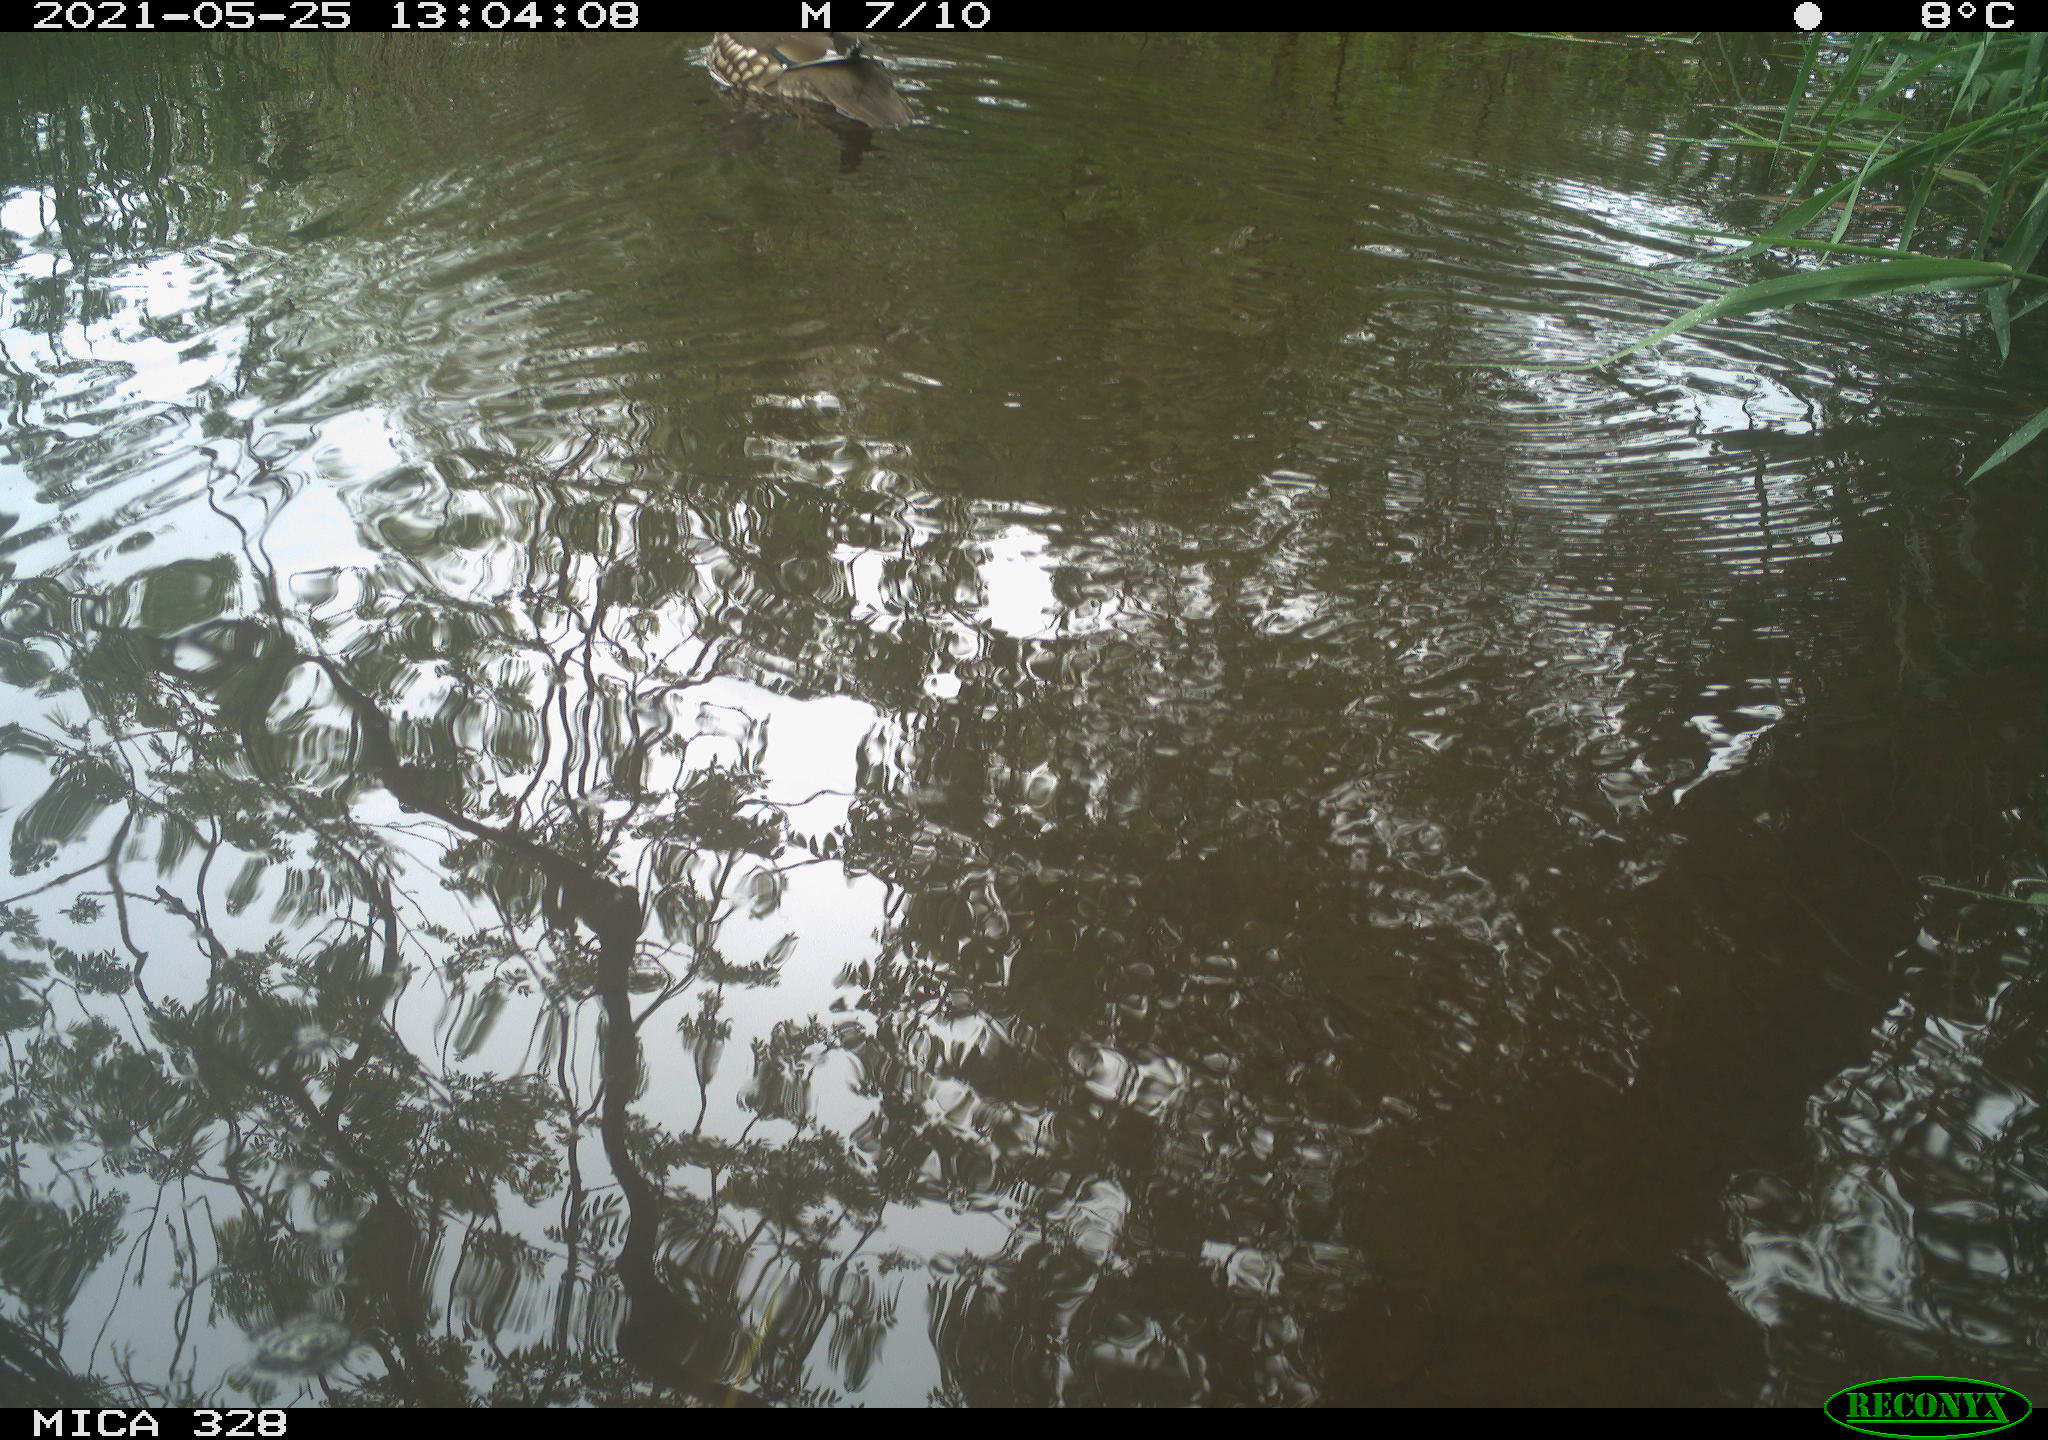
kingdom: Animalia
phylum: Chordata
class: Aves
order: Anseriformes
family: Anatidae
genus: Aix
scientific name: Aix galericulata
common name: Mandarin duck
